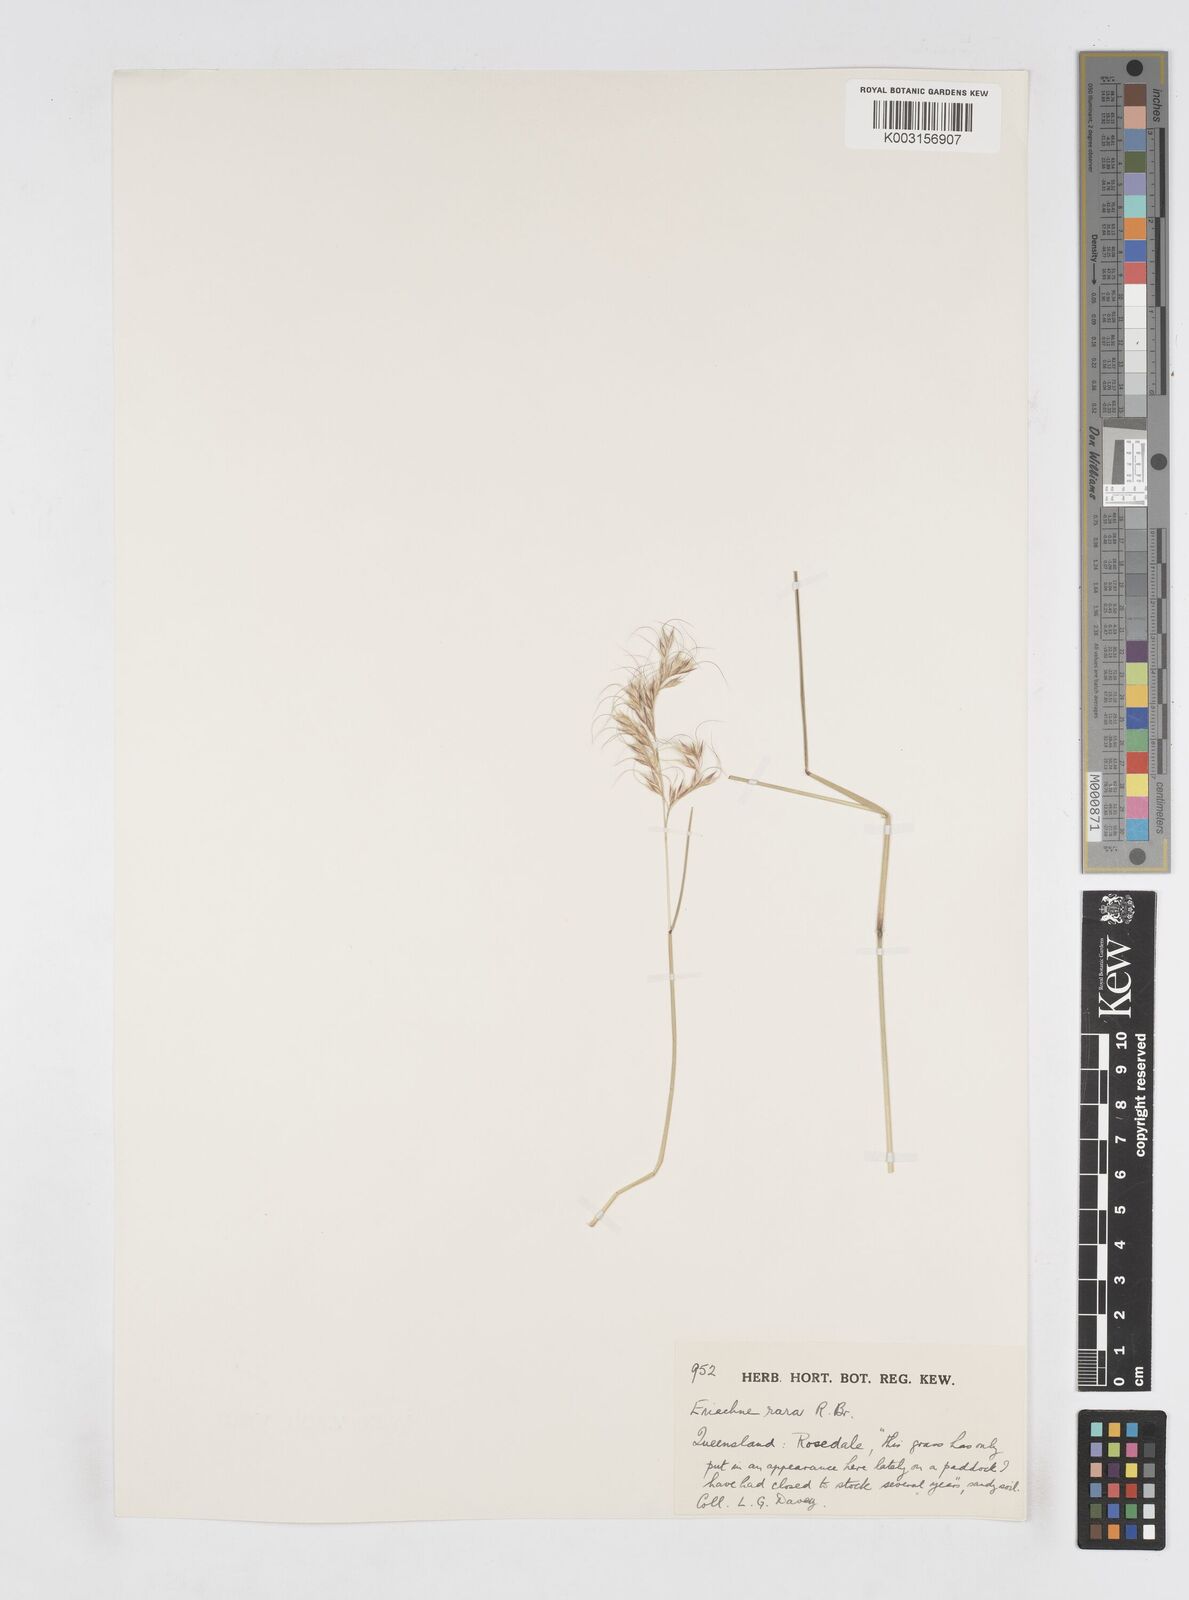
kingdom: Plantae
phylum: Tracheophyta
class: Liliopsida
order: Poales
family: Poaceae
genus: Eriachne
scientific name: Eriachne rara
